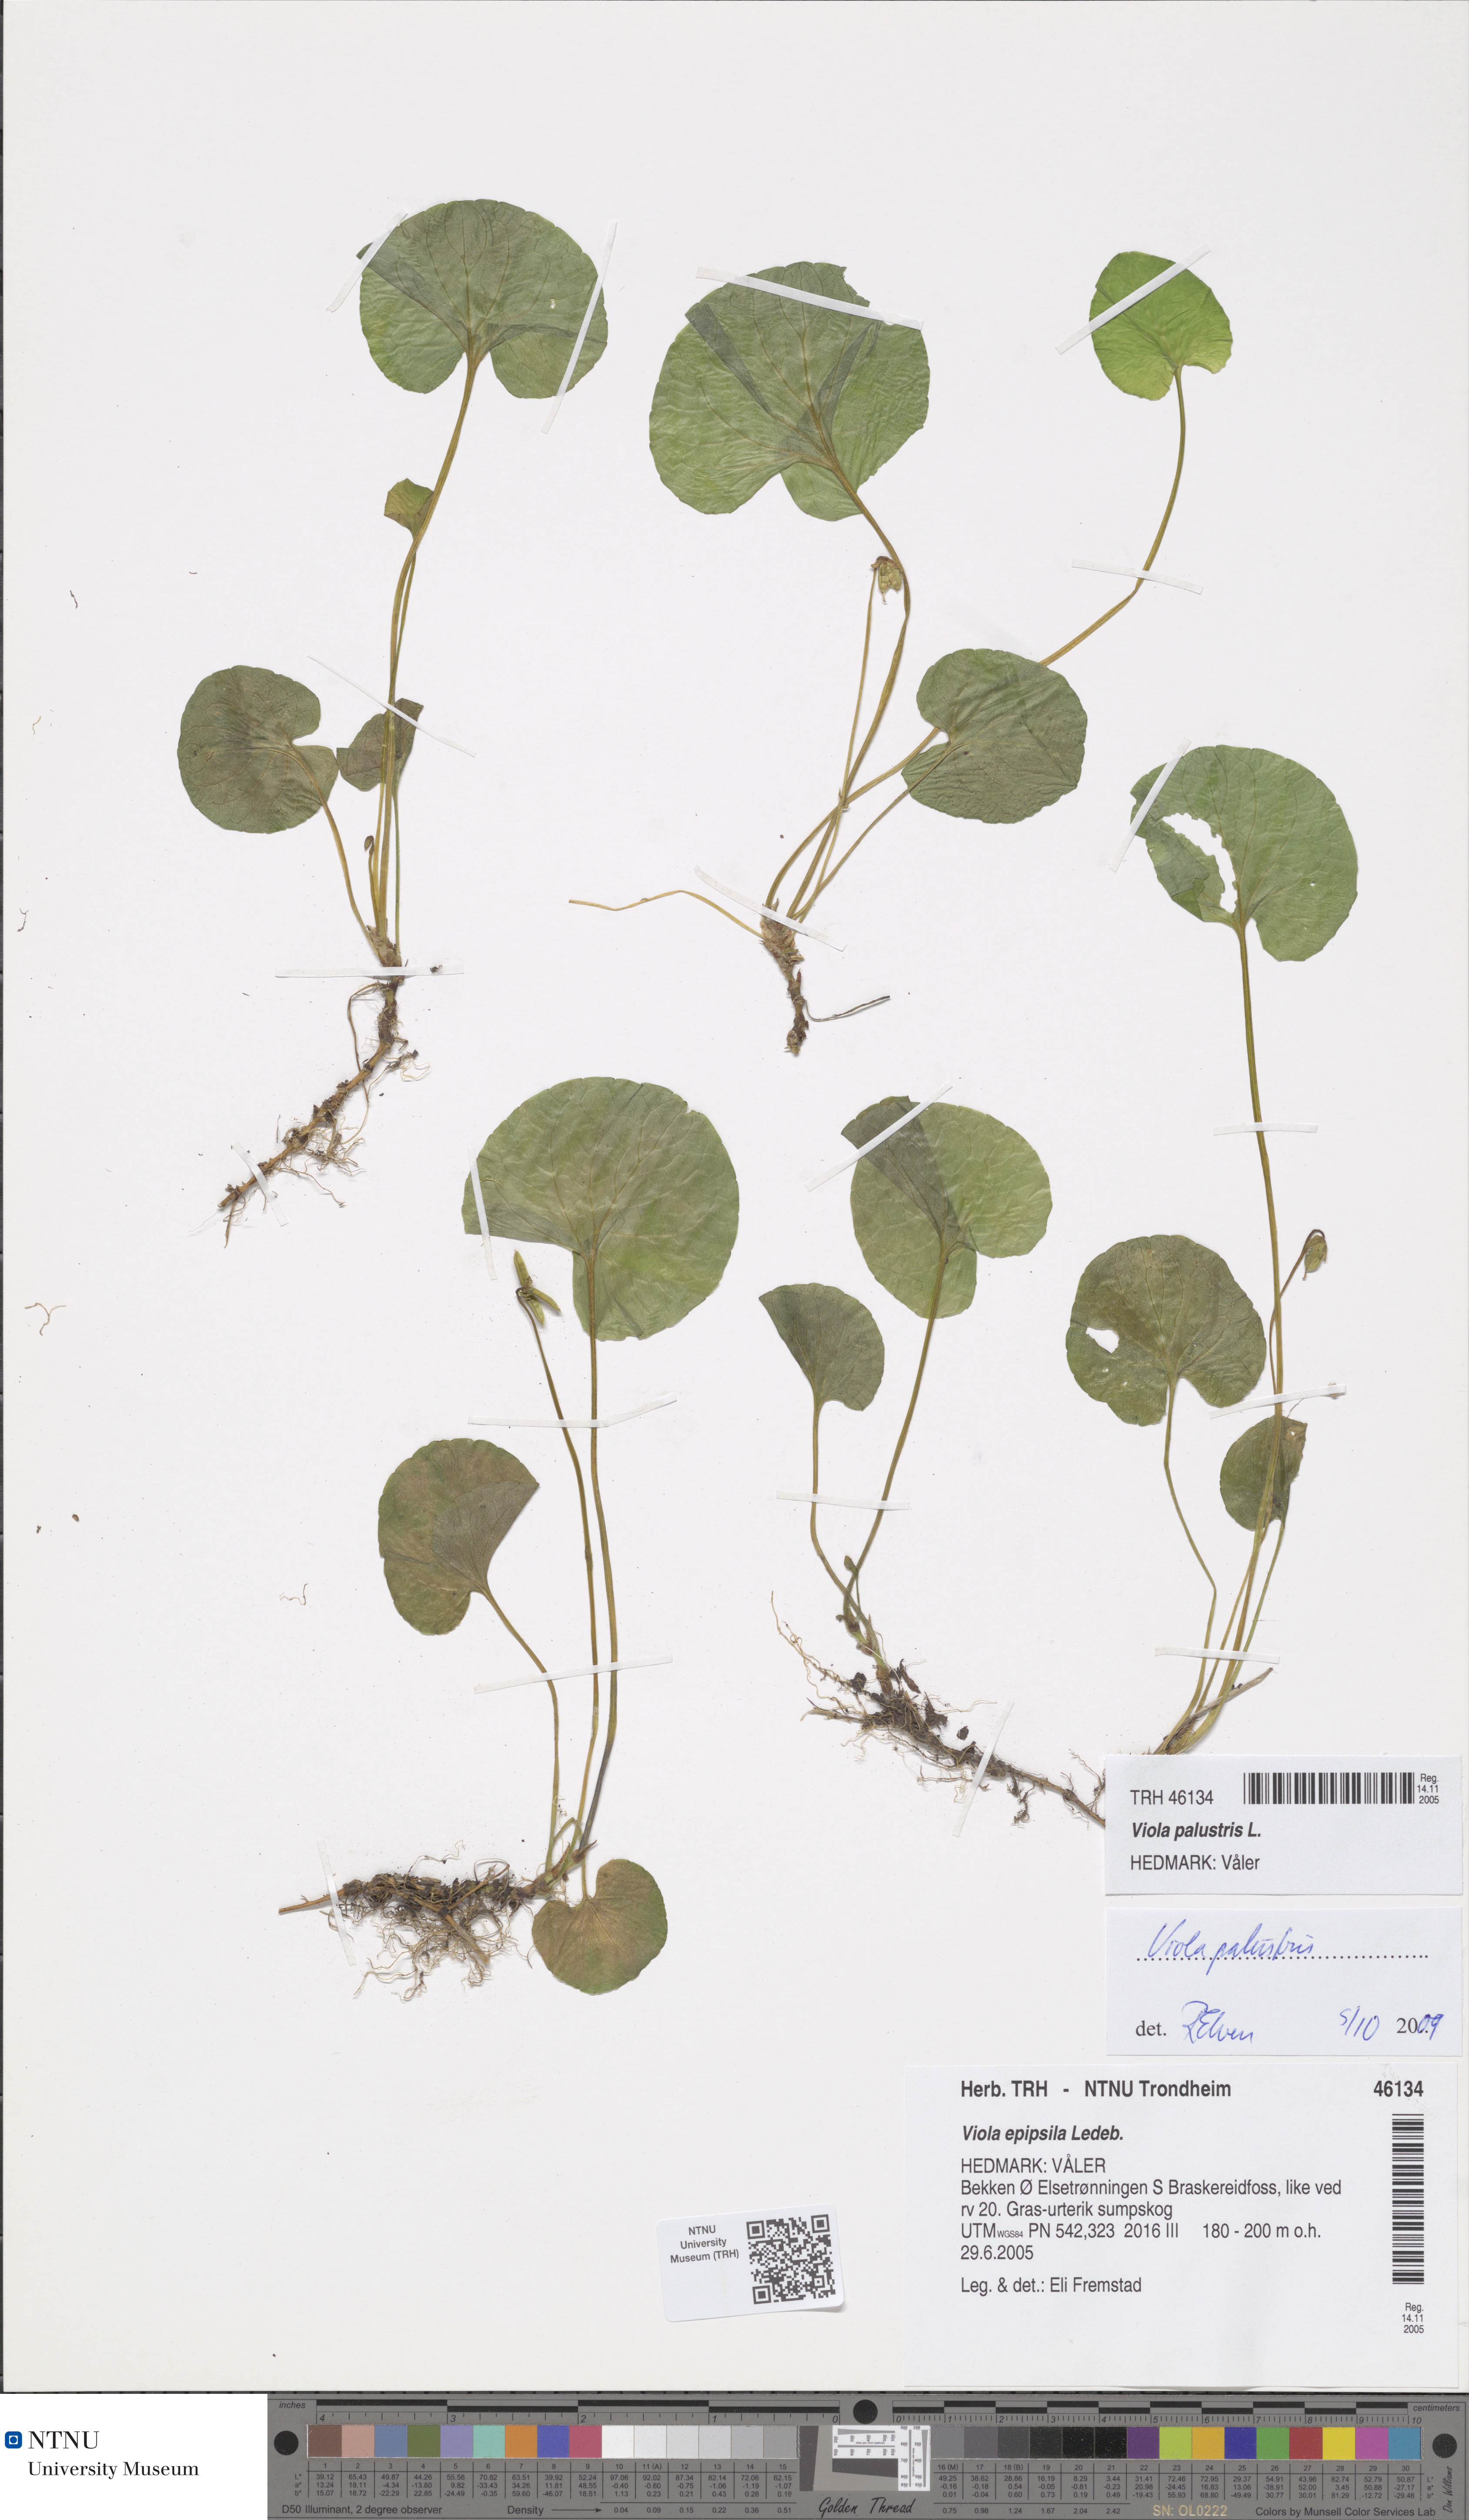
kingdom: Plantae
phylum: Tracheophyta
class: Magnoliopsida
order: Malpighiales
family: Violaceae
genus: Viola
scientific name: Viola palustris
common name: Marsh violet
